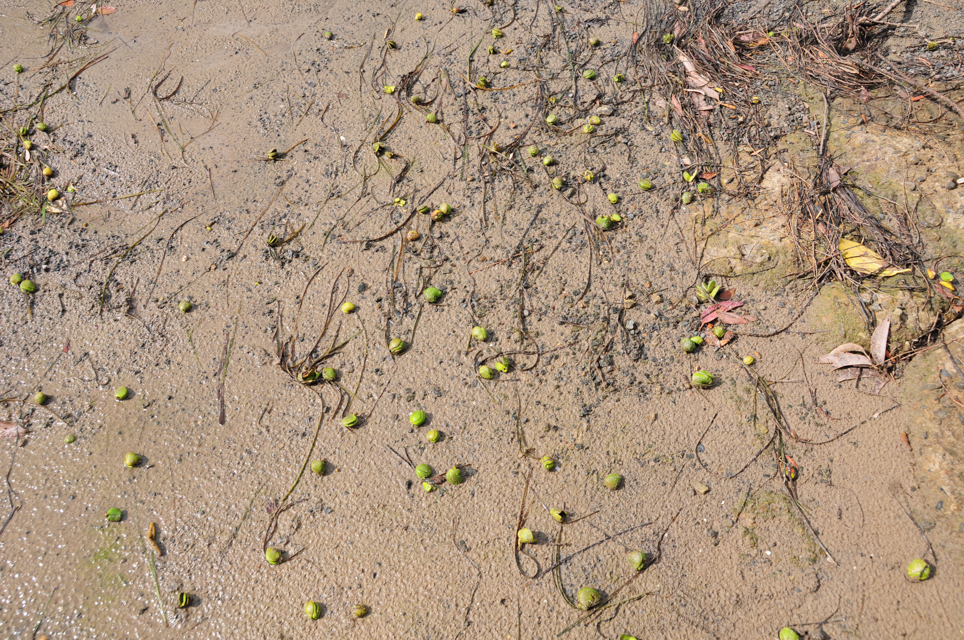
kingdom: Plantae
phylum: Tracheophyta
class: Magnoliopsida
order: Lamiales
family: Acanthaceae
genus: Avicennia
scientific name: Avicennia marina
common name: Gray mangrove
